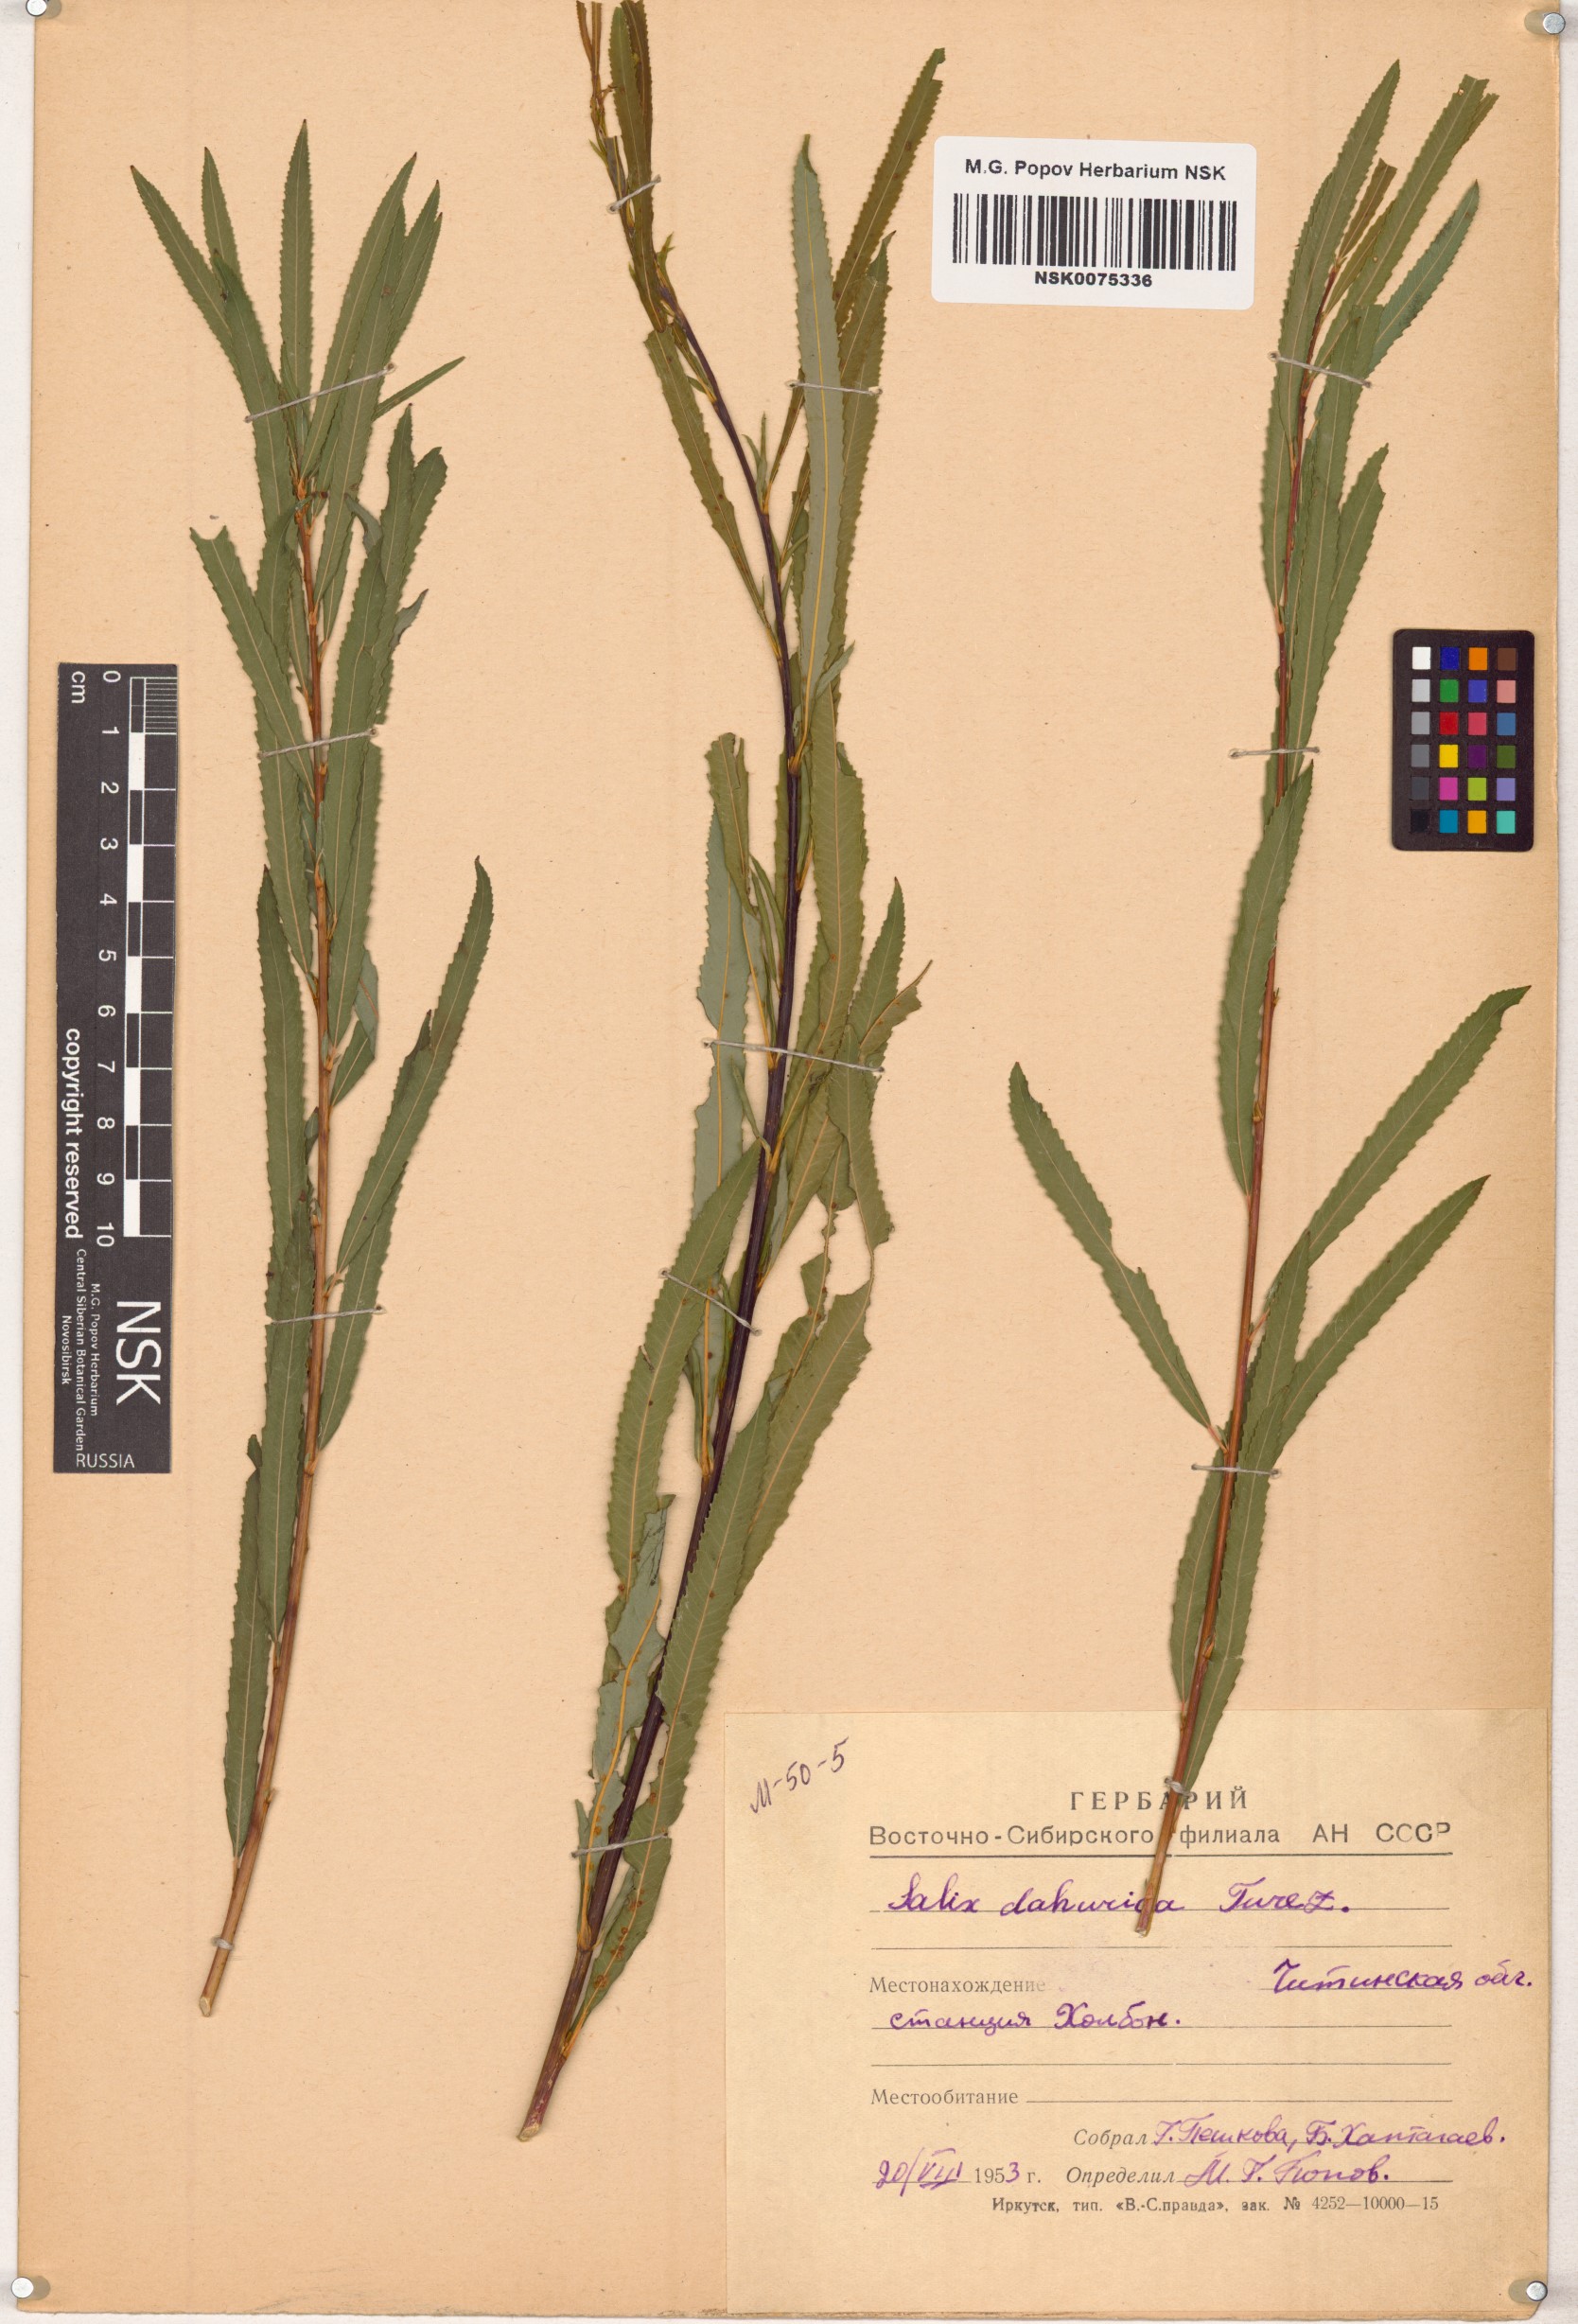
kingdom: Plantae
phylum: Tracheophyta
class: Magnoliopsida
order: Malpighiales
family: Salicaceae
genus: Salix
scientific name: Salix
